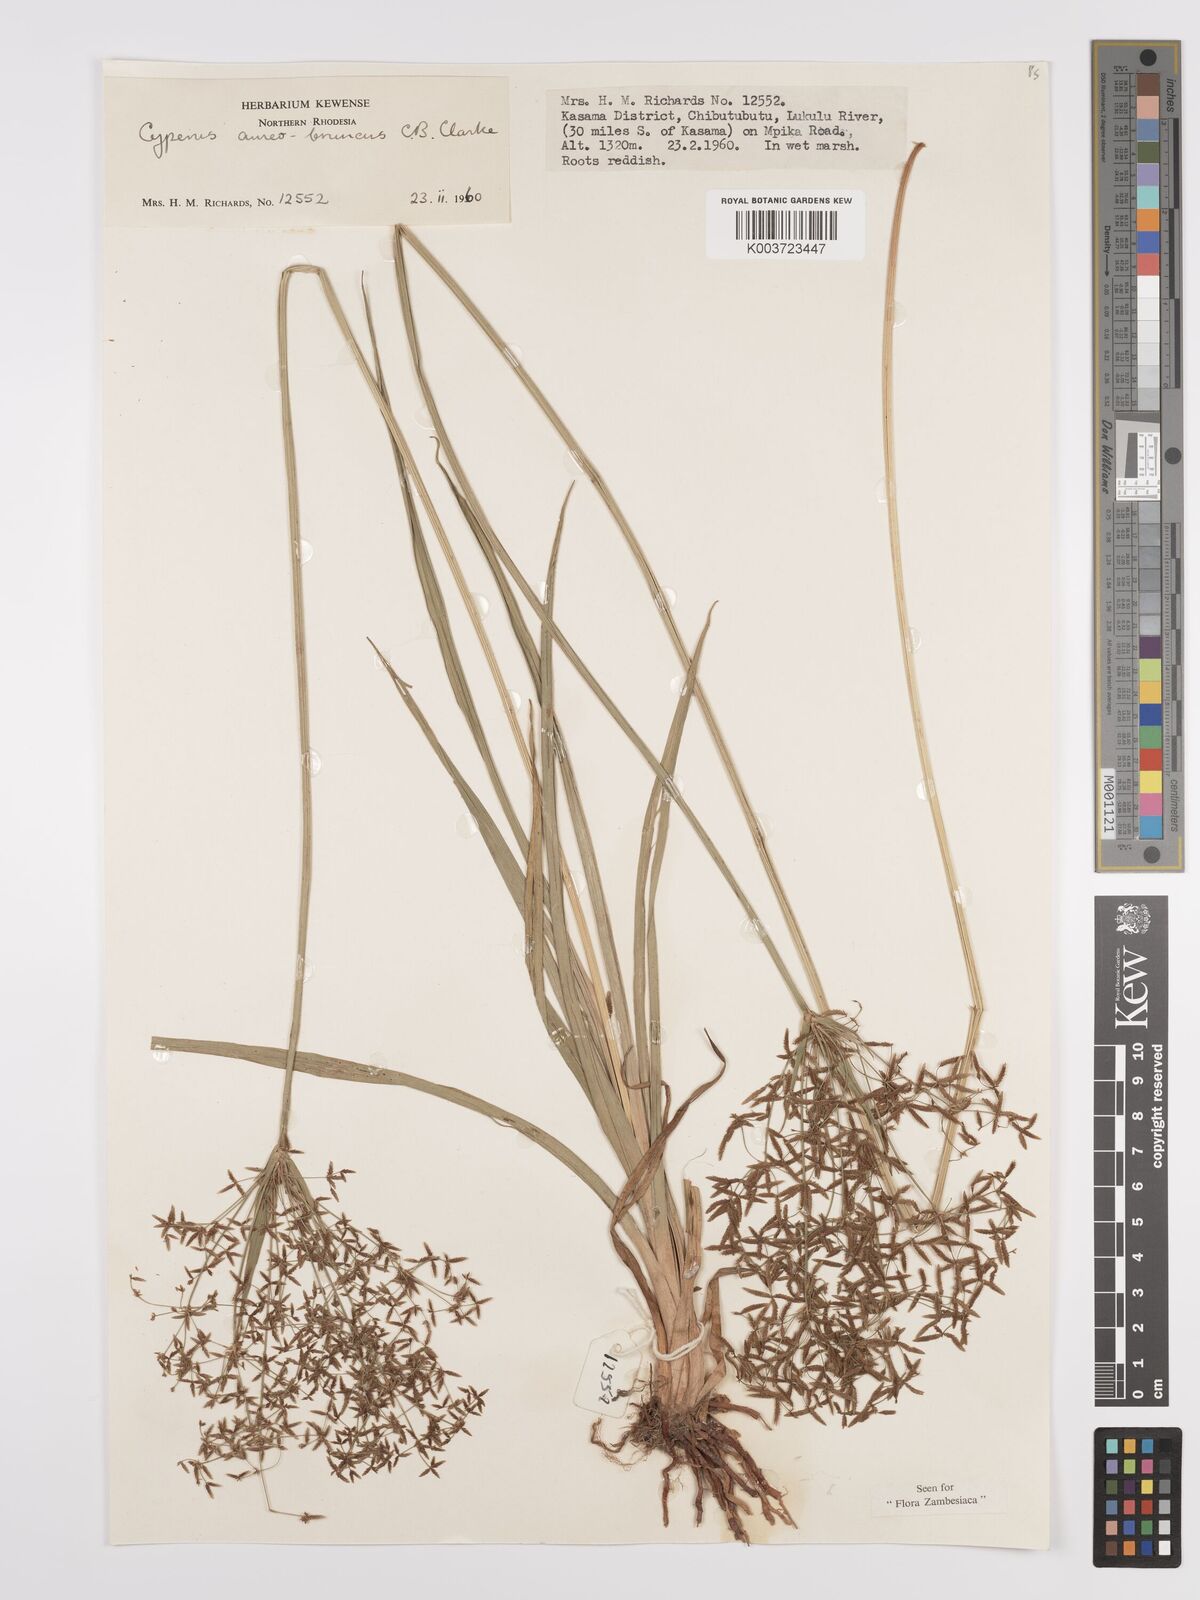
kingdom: Plantae
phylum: Tracheophyta
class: Liliopsida
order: Poales
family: Cyperaceae
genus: Cyperus
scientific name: Cyperus aureobrunneus
